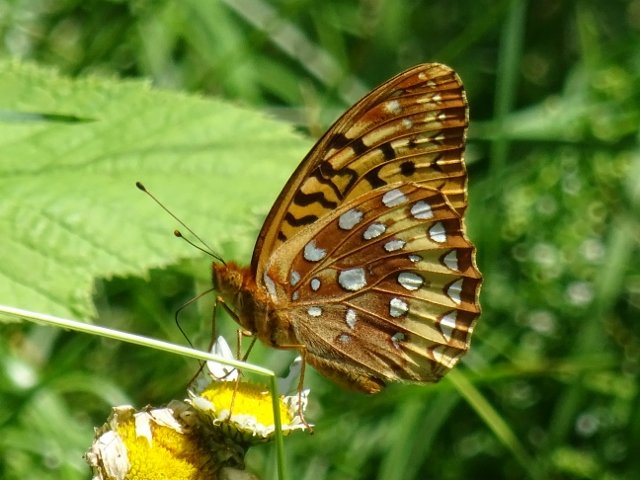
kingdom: Animalia
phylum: Arthropoda
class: Insecta
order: Lepidoptera
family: Nymphalidae
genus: Speyeria
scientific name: Speyeria cybele
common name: Great Spangled Fritillary
